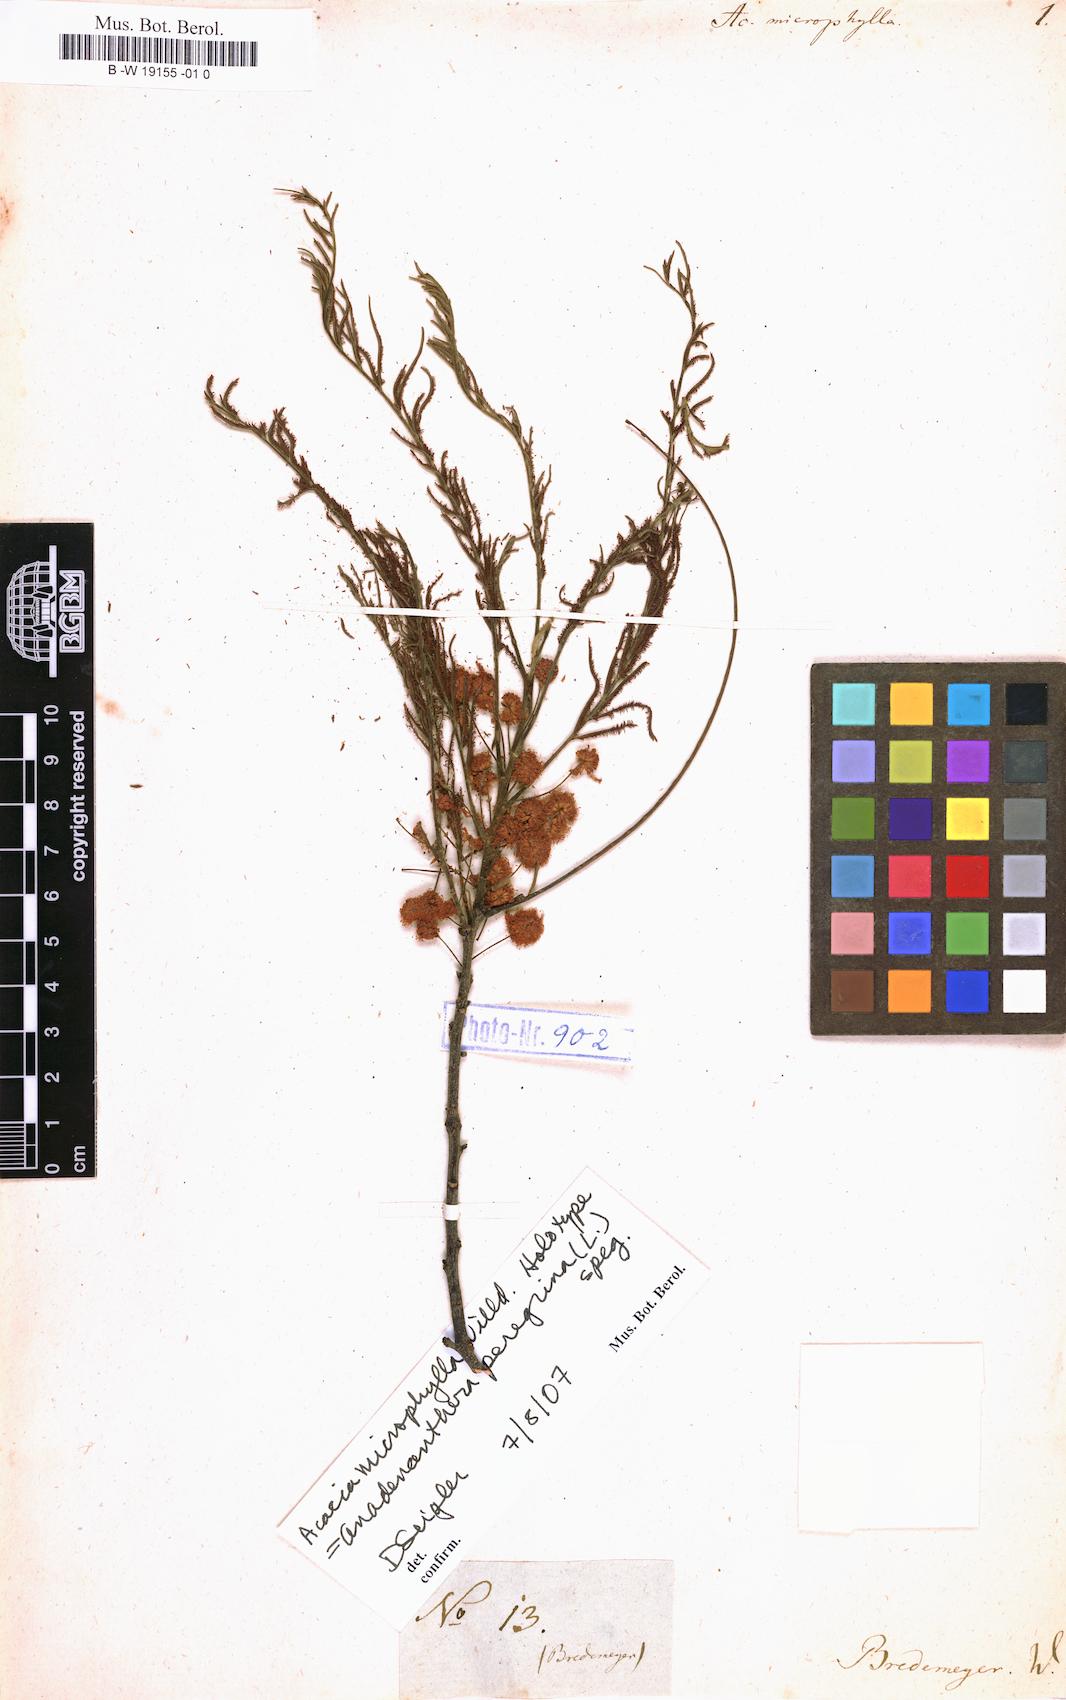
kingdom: Plantae
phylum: Tracheophyta
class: Magnoliopsida
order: Fabales
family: Fabaceae
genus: Albizia
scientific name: Albizia myriophylla
